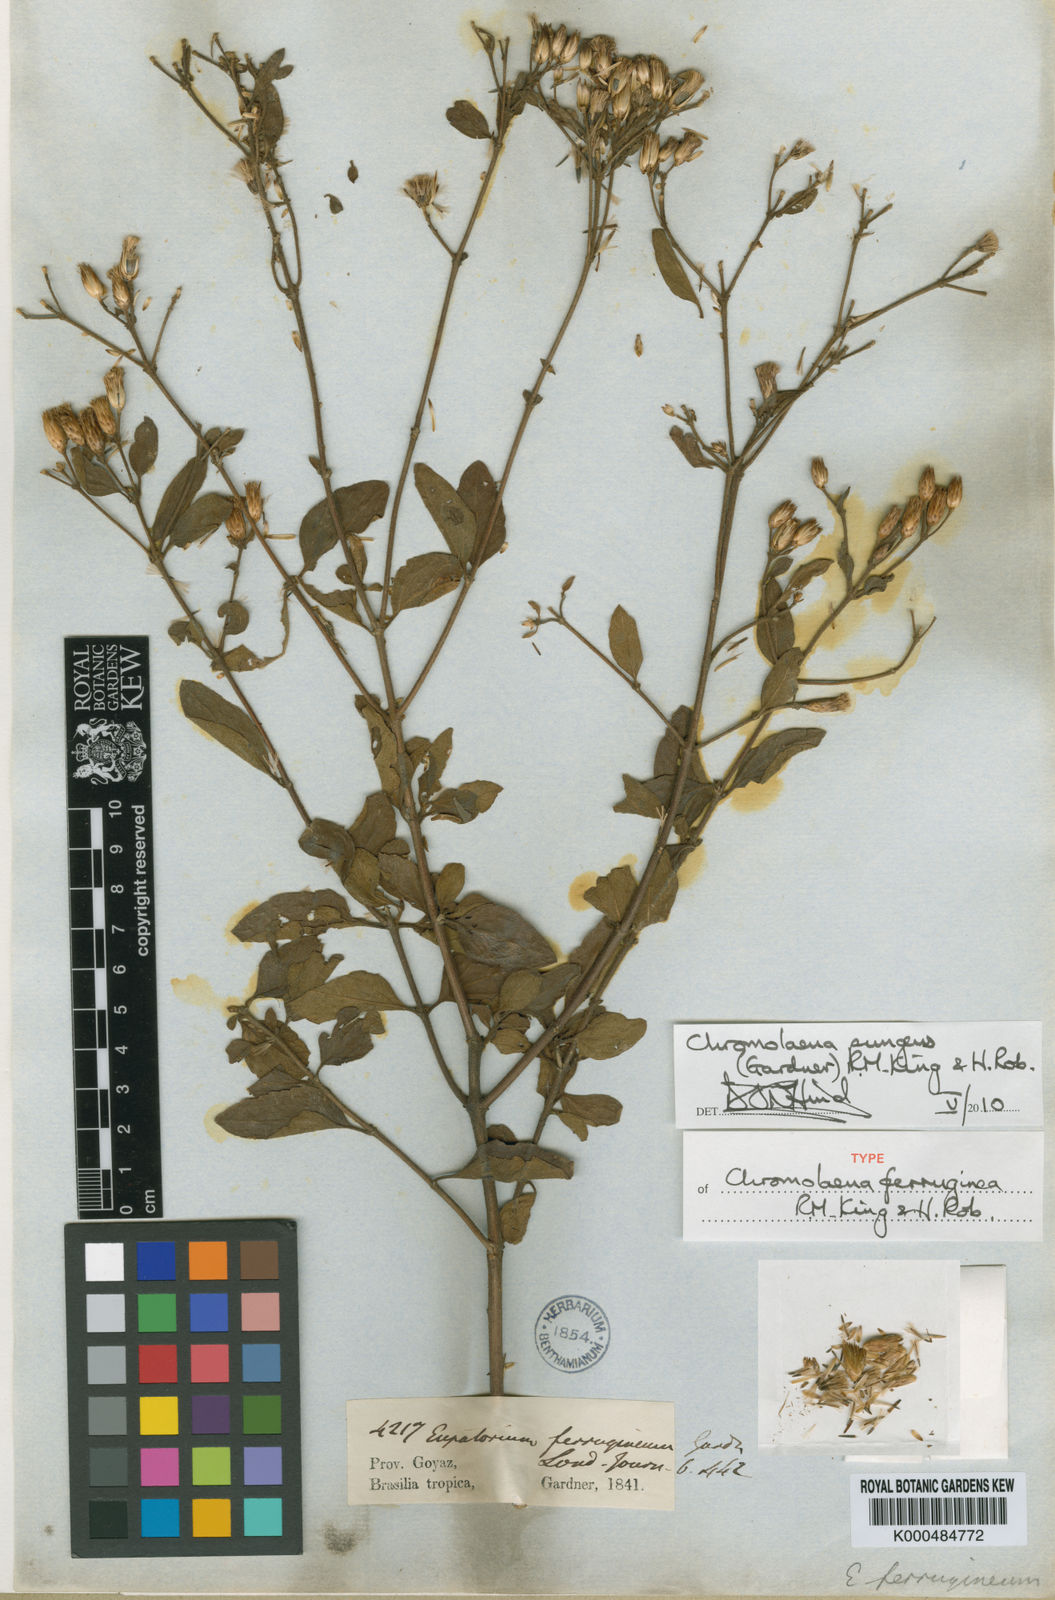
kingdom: Plantae
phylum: Tracheophyta
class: Magnoliopsida
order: Asterales
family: Asteraceae
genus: Chromolaena
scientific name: Chromolaena pungens
